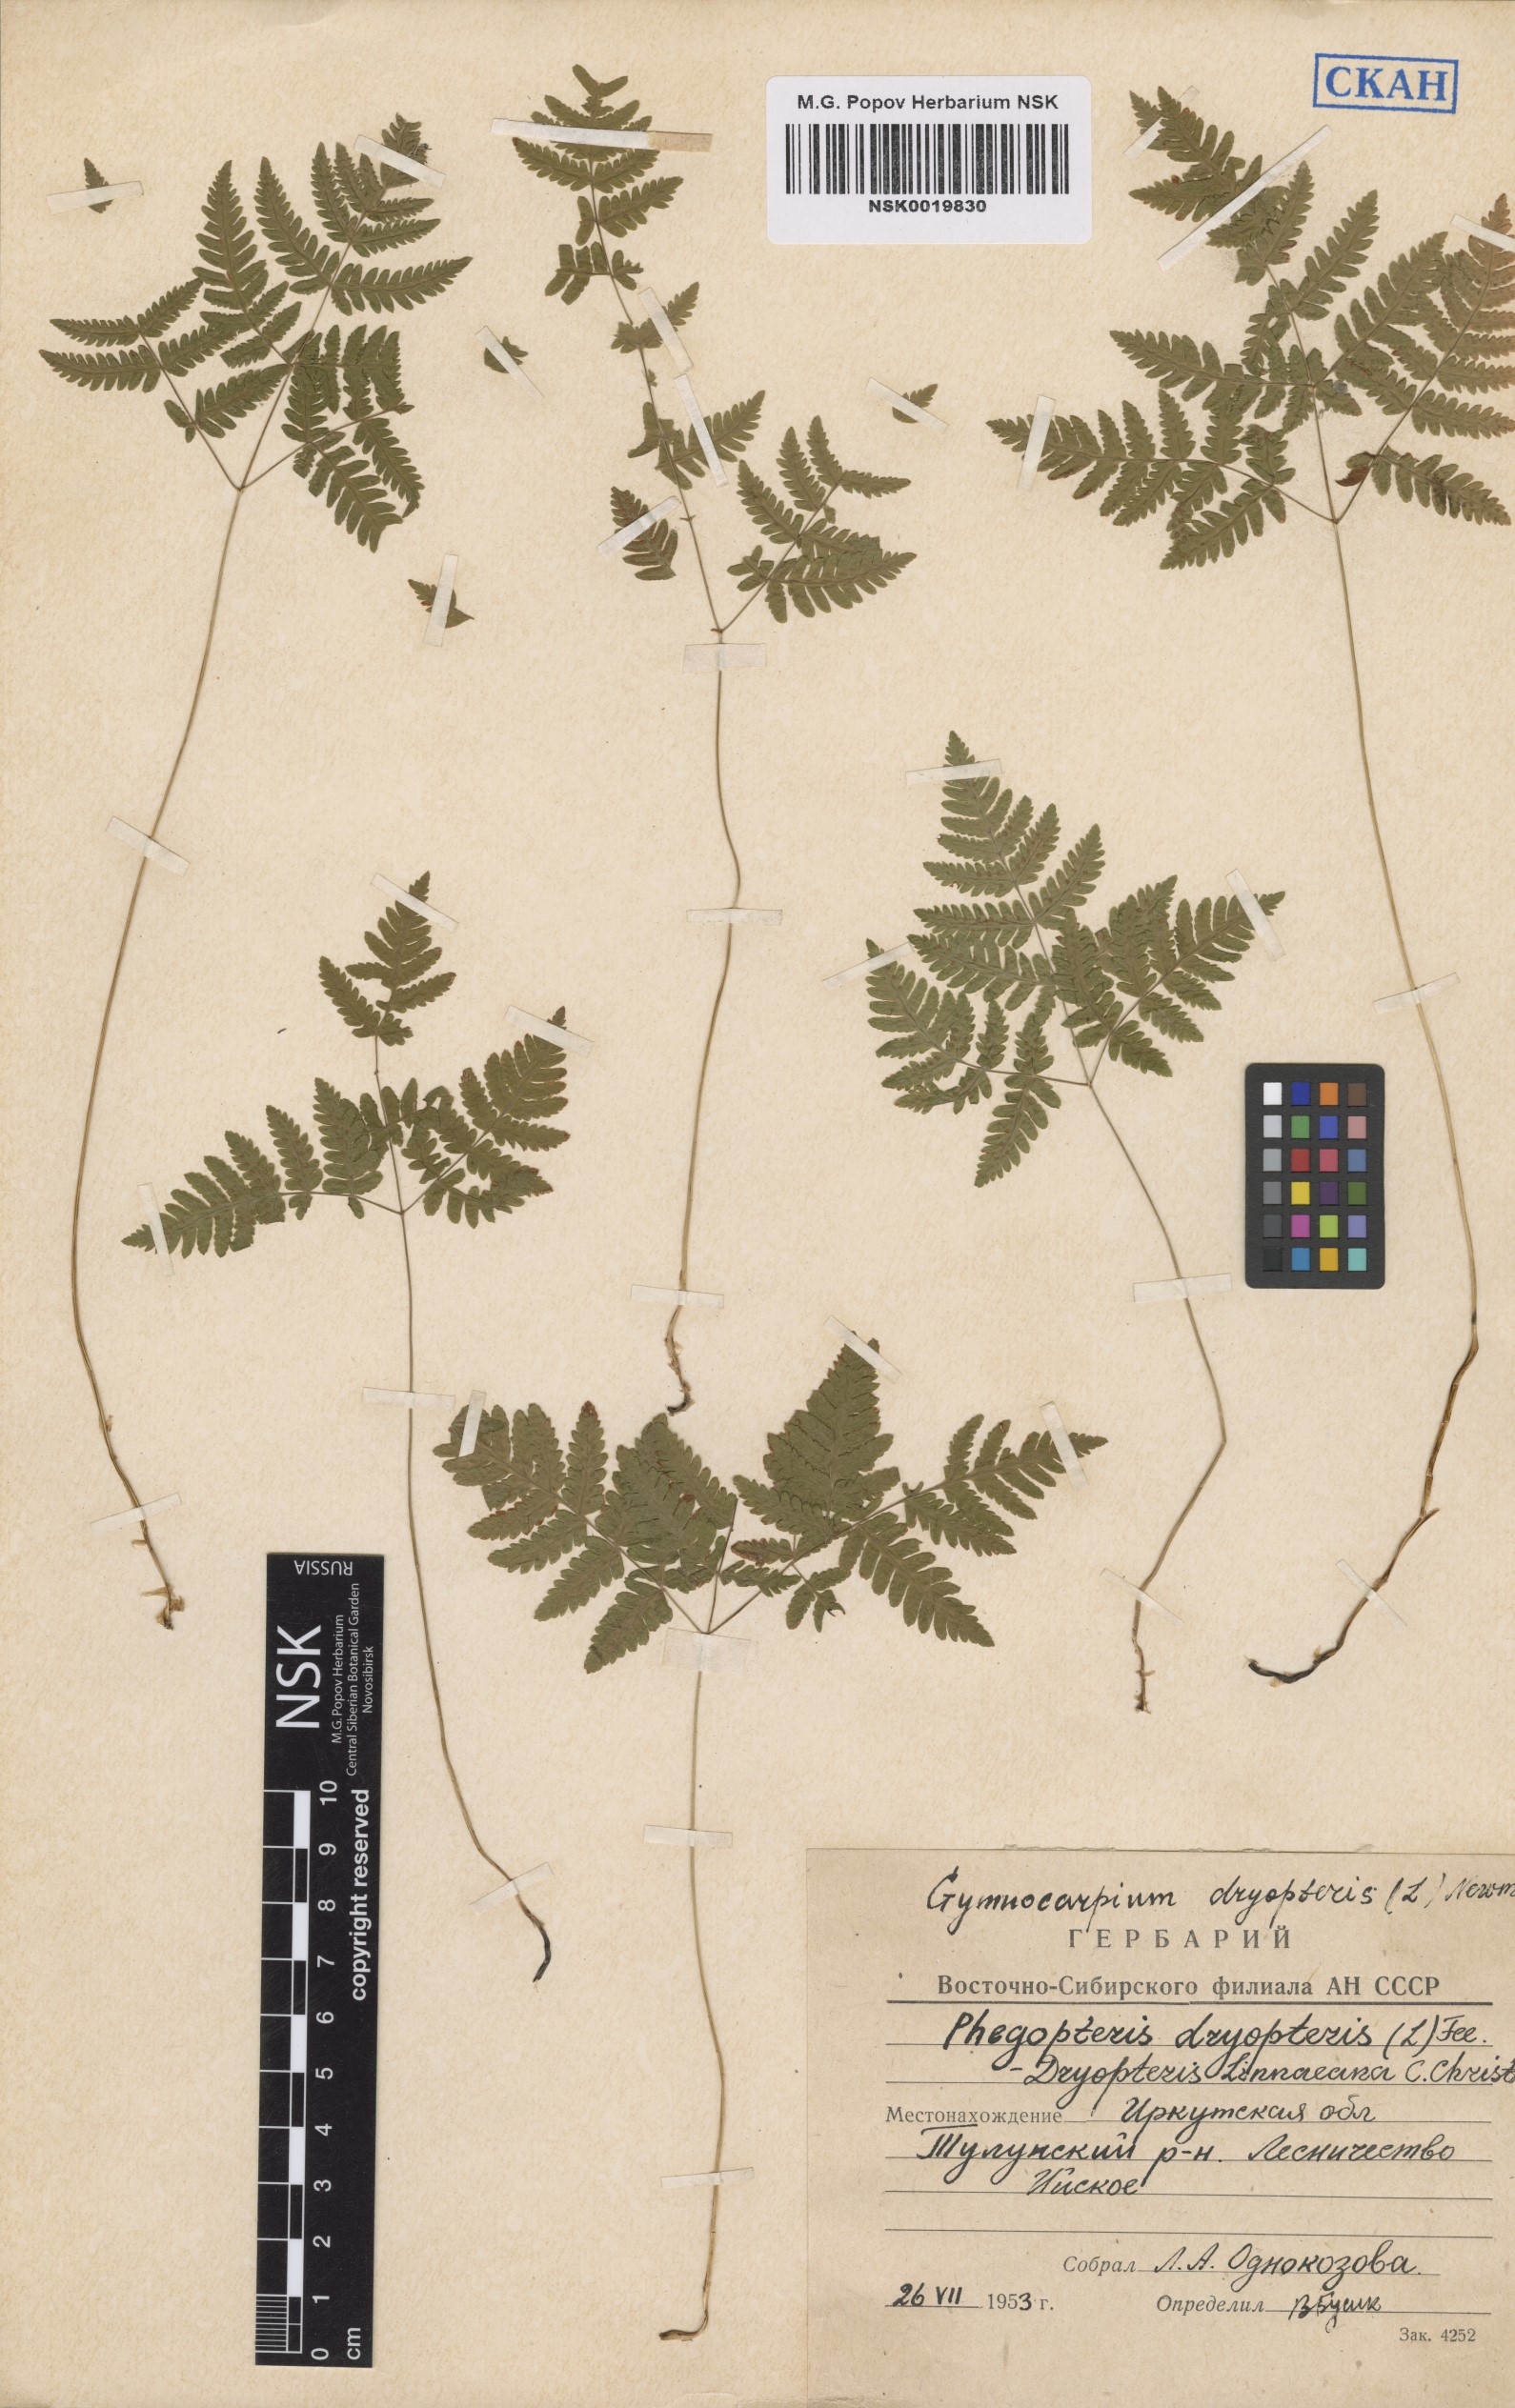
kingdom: Plantae
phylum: Tracheophyta
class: Polypodiopsida
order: Polypodiales
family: Cystopteridaceae
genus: Gymnocarpium
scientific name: Gymnocarpium dryopteris
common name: Oak fern
